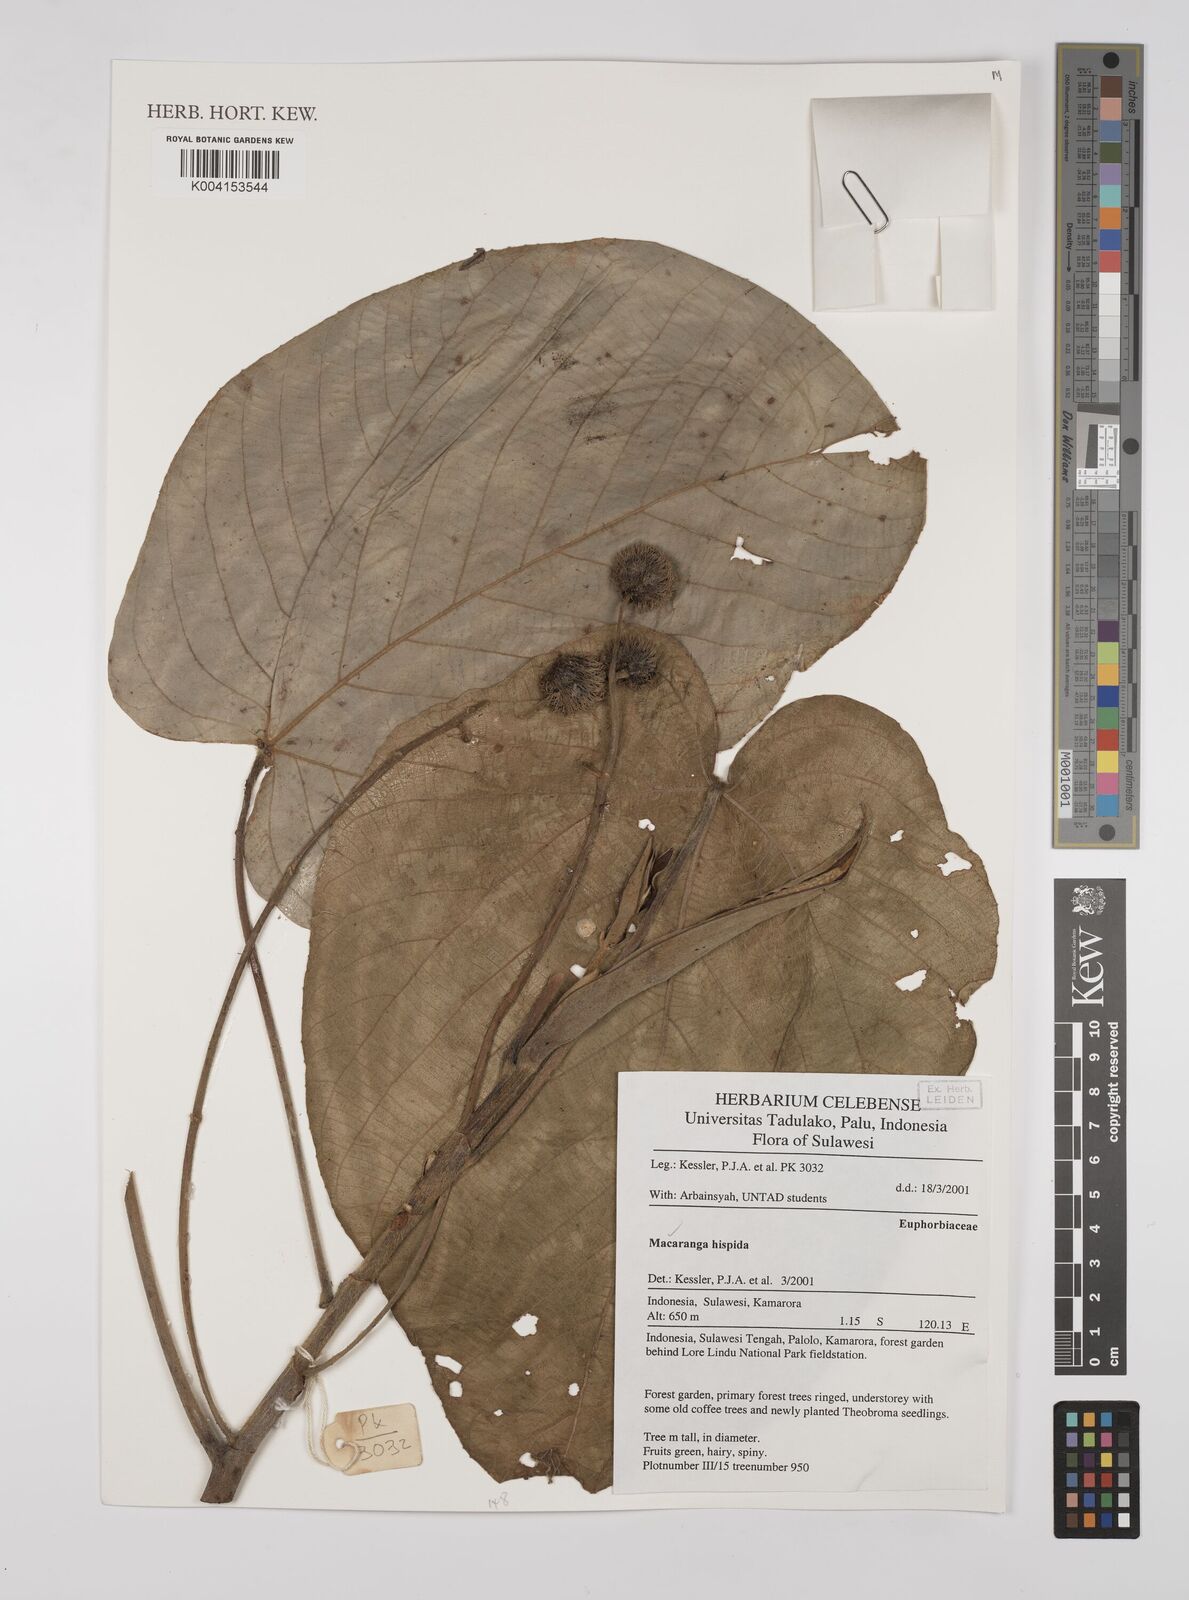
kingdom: Plantae
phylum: Tracheophyta
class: Magnoliopsida
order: Malpighiales
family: Euphorbiaceae
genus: Macaranga
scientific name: Macaranga hispida
